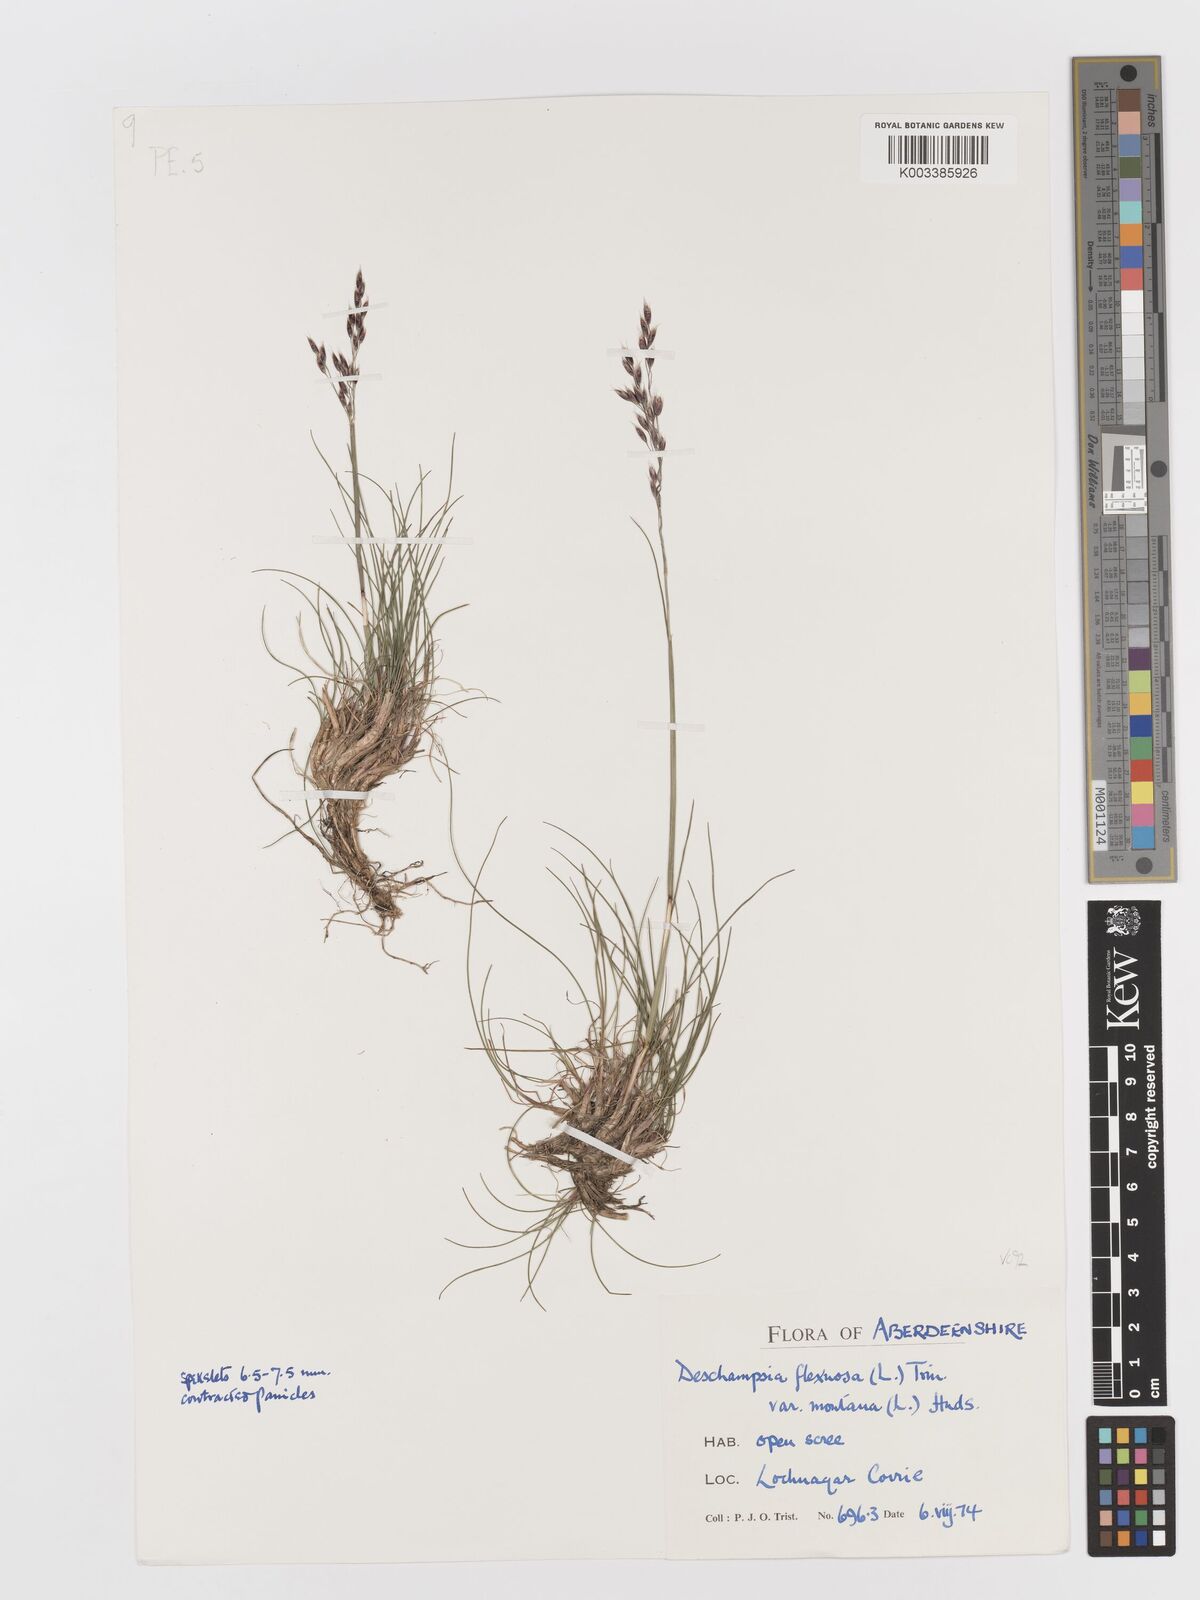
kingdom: Plantae
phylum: Tracheophyta
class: Liliopsida
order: Poales
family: Poaceae
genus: Avenella
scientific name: Avenella flexuosa
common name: Wavy hairgrass
